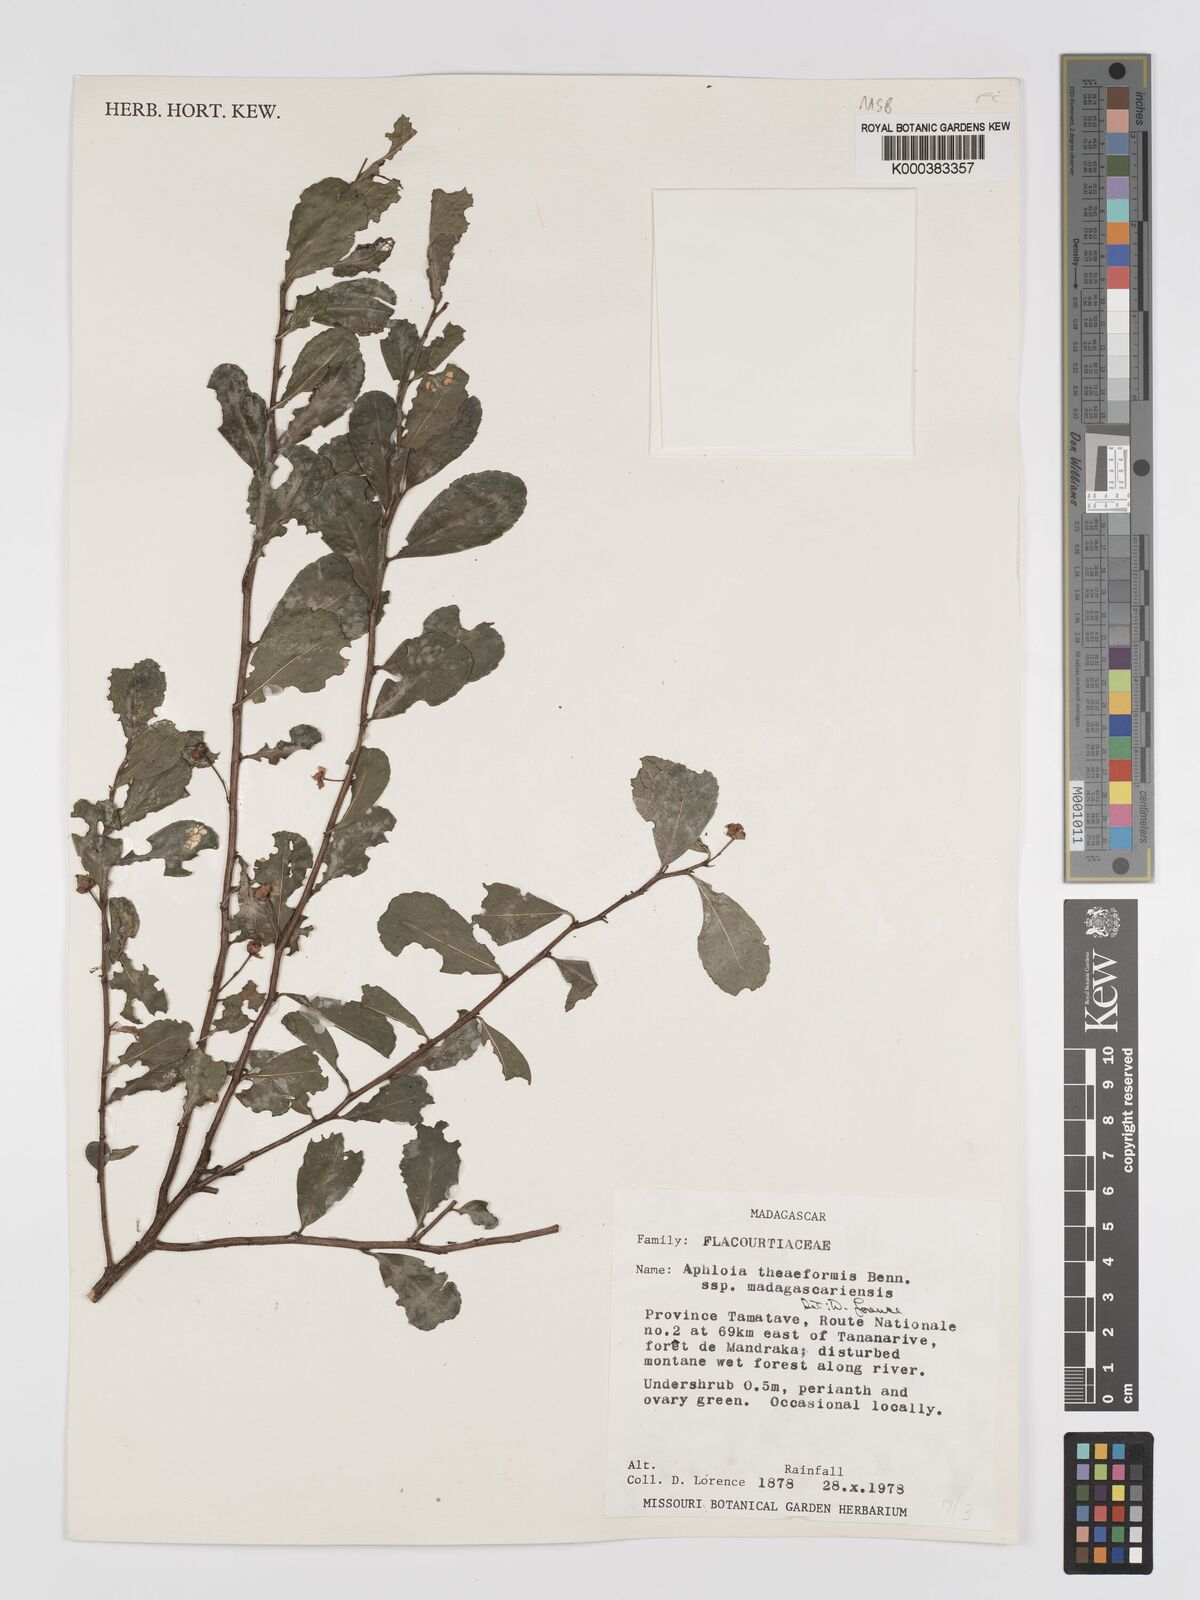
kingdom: Plantae
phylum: Tracheophyta
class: Magnoliopsida
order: Crossosomatales
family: Aphloiaceae
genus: Aphloia
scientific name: Aphloia theiformis
